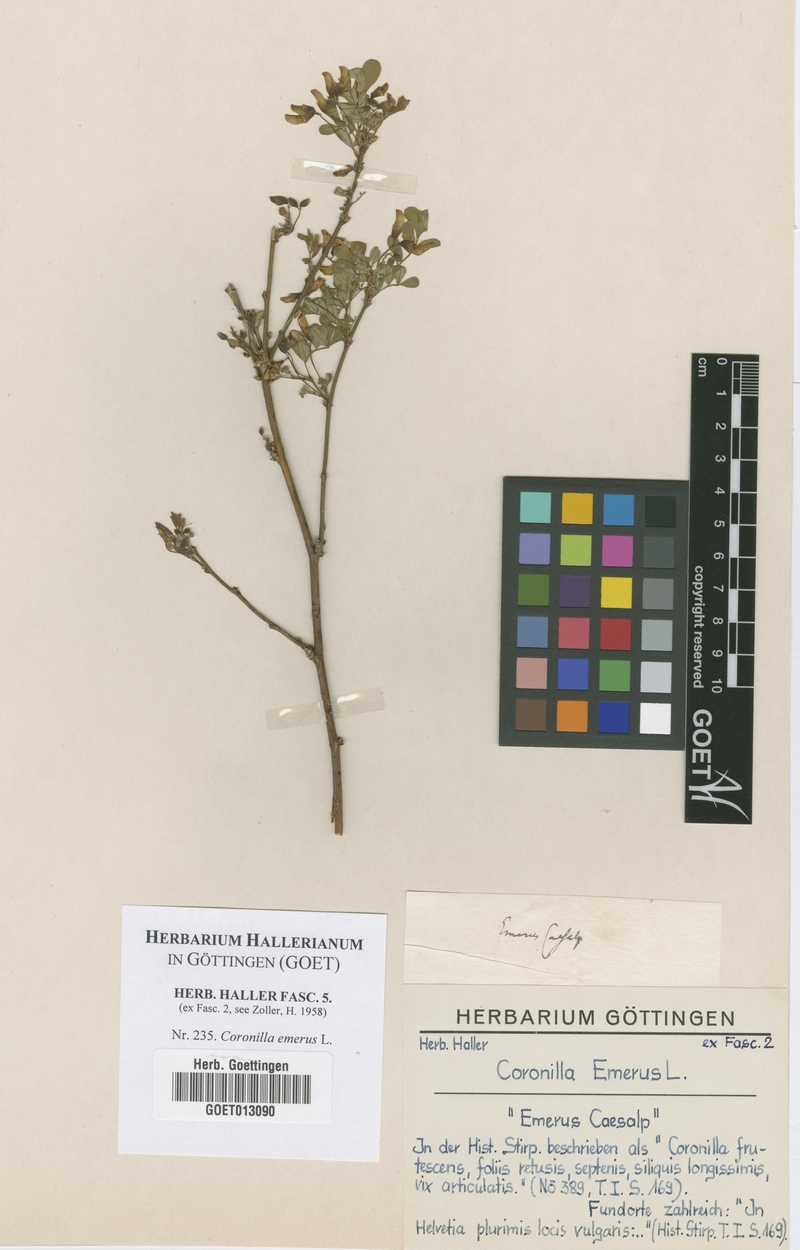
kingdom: Plantae
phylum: Tracheophyta
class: Magnoliopsida
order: Fabales
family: Fabaceae
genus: Hippocrepis
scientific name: Hippocrepis emerus
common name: Scorpion senna
